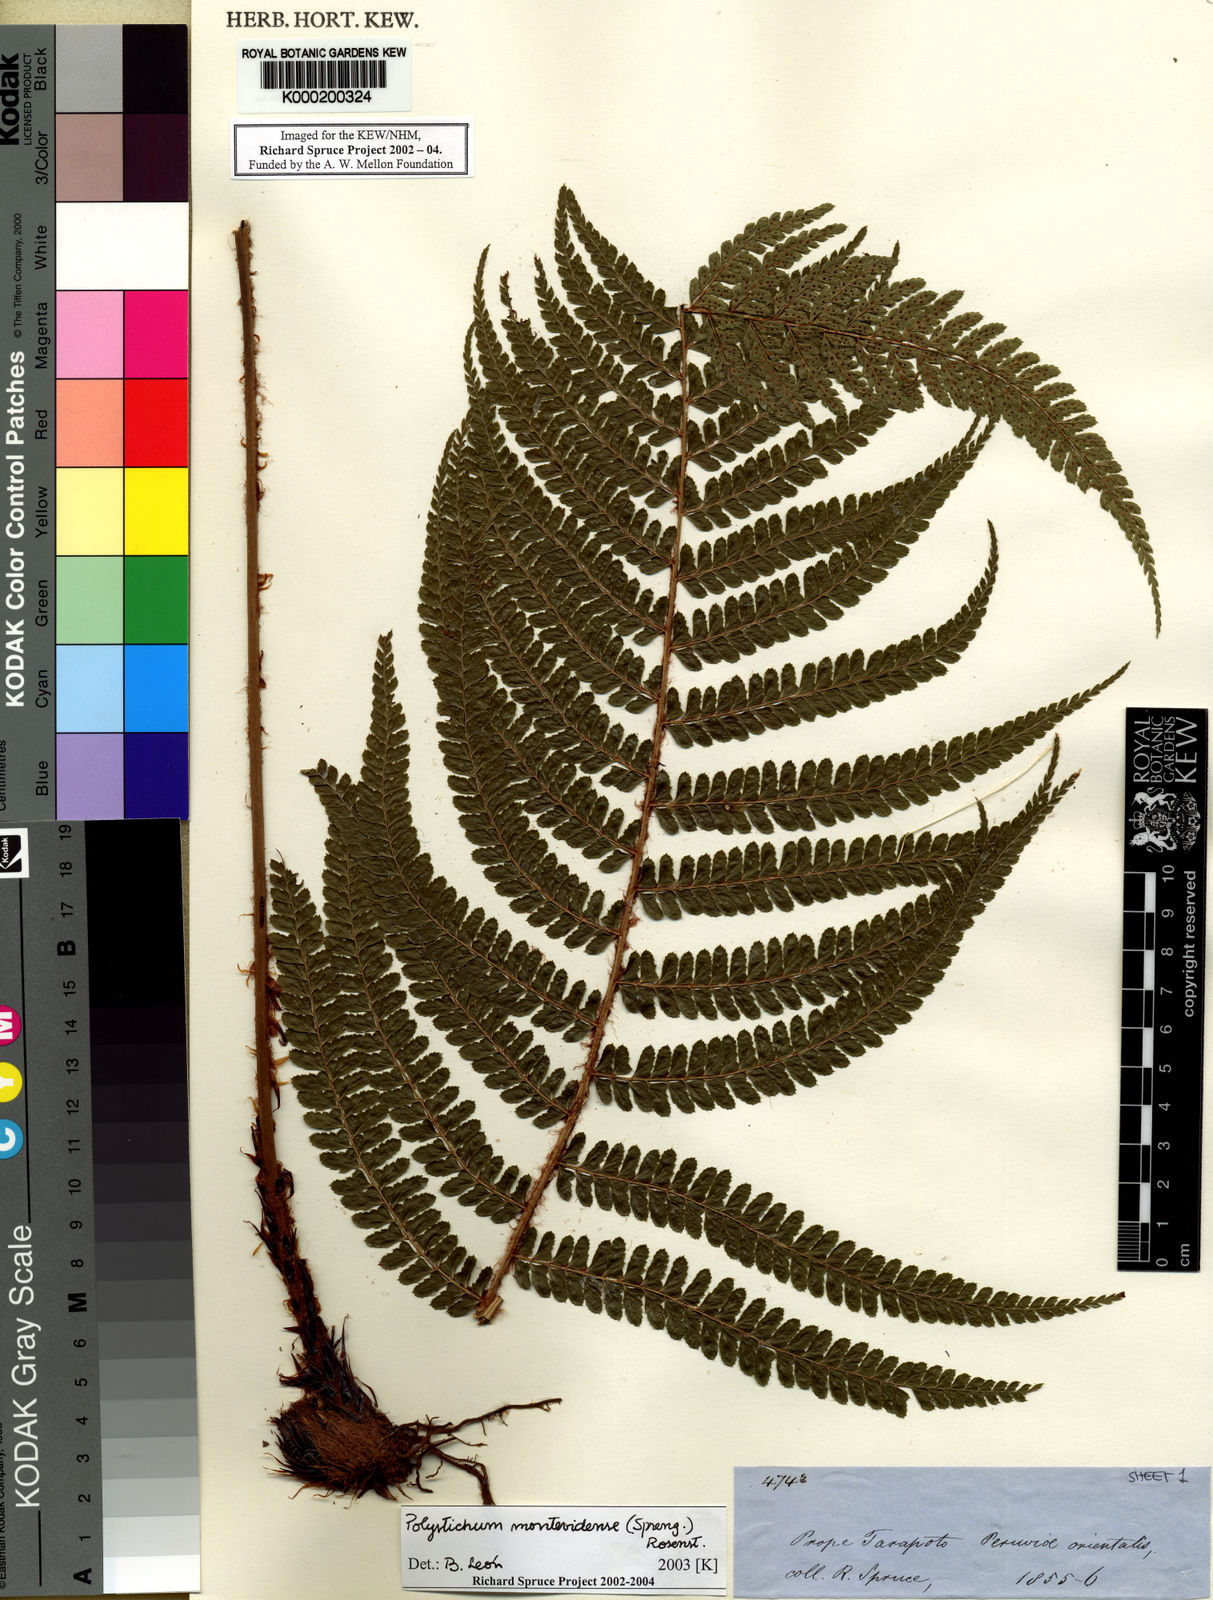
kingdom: Plantae
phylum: Tracheophyta
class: Polypodiopsida
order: Polypodiales
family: Dryopteridaceae
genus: Polystichum
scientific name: Polystichum montevidense
